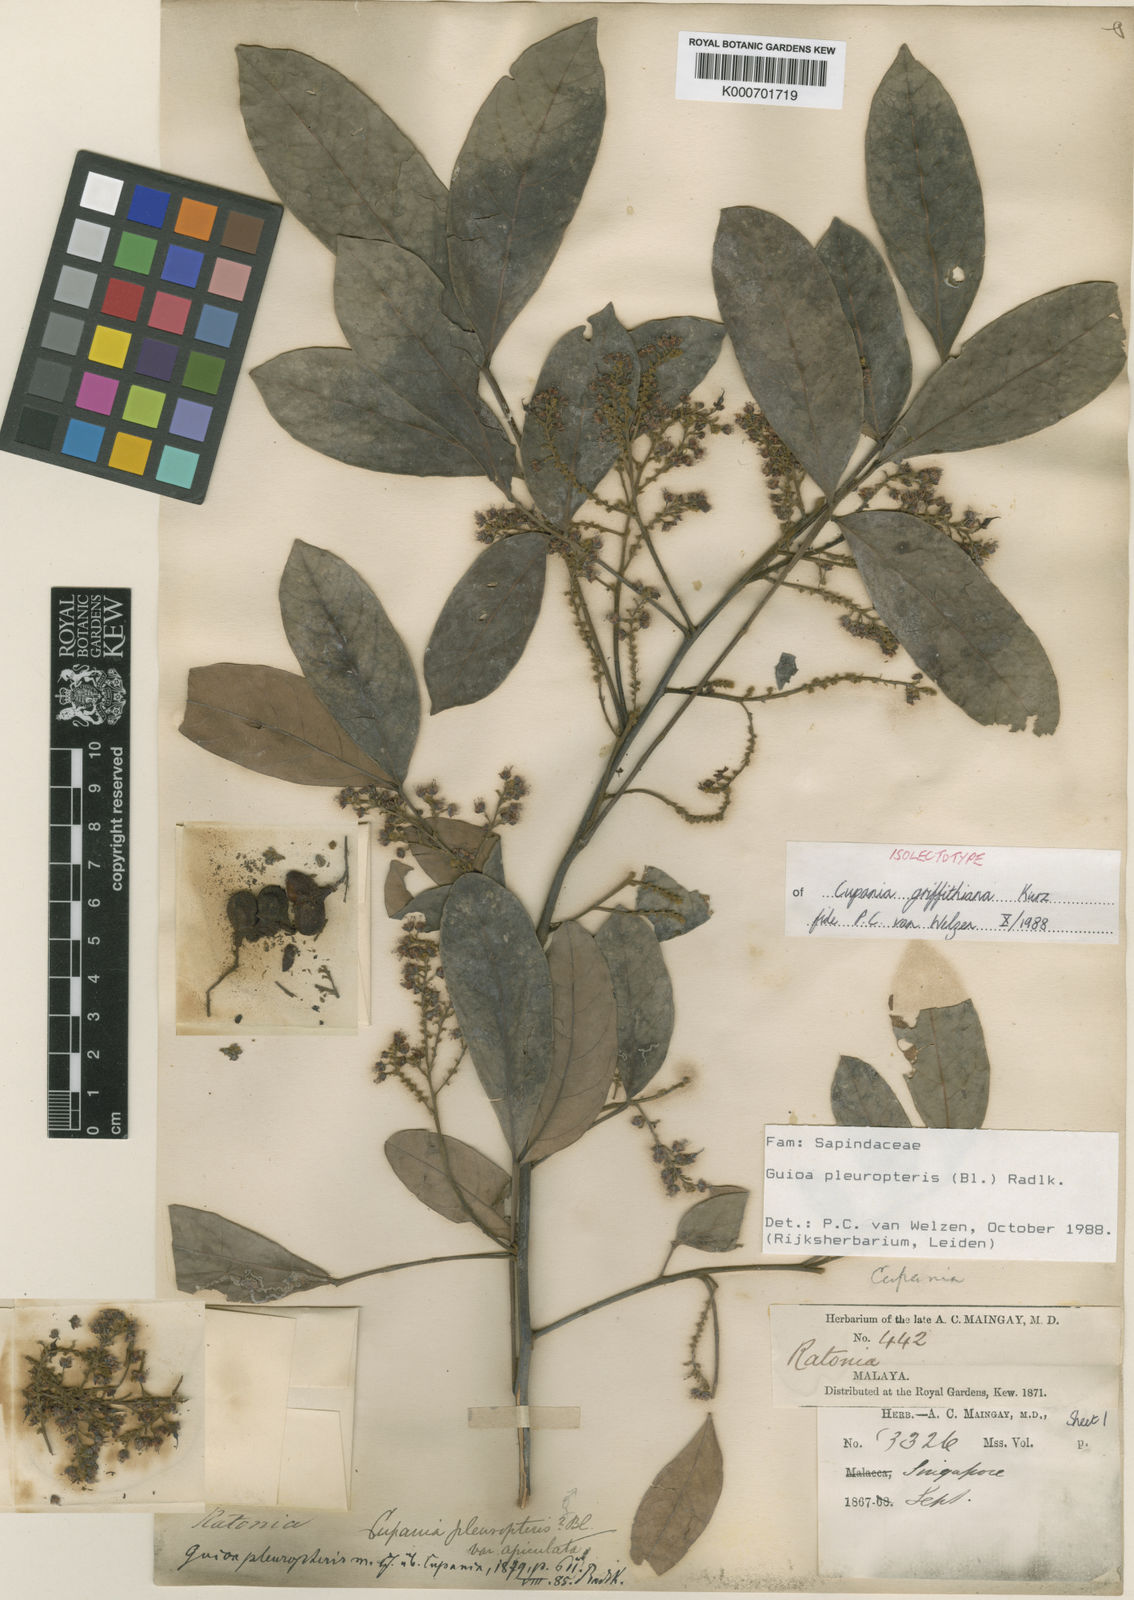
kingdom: Plantae
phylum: Tracheophyta
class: Magnoliopsida
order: Sapindales
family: Sapindaceae
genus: Guioa
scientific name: Guioa pleuropteris
